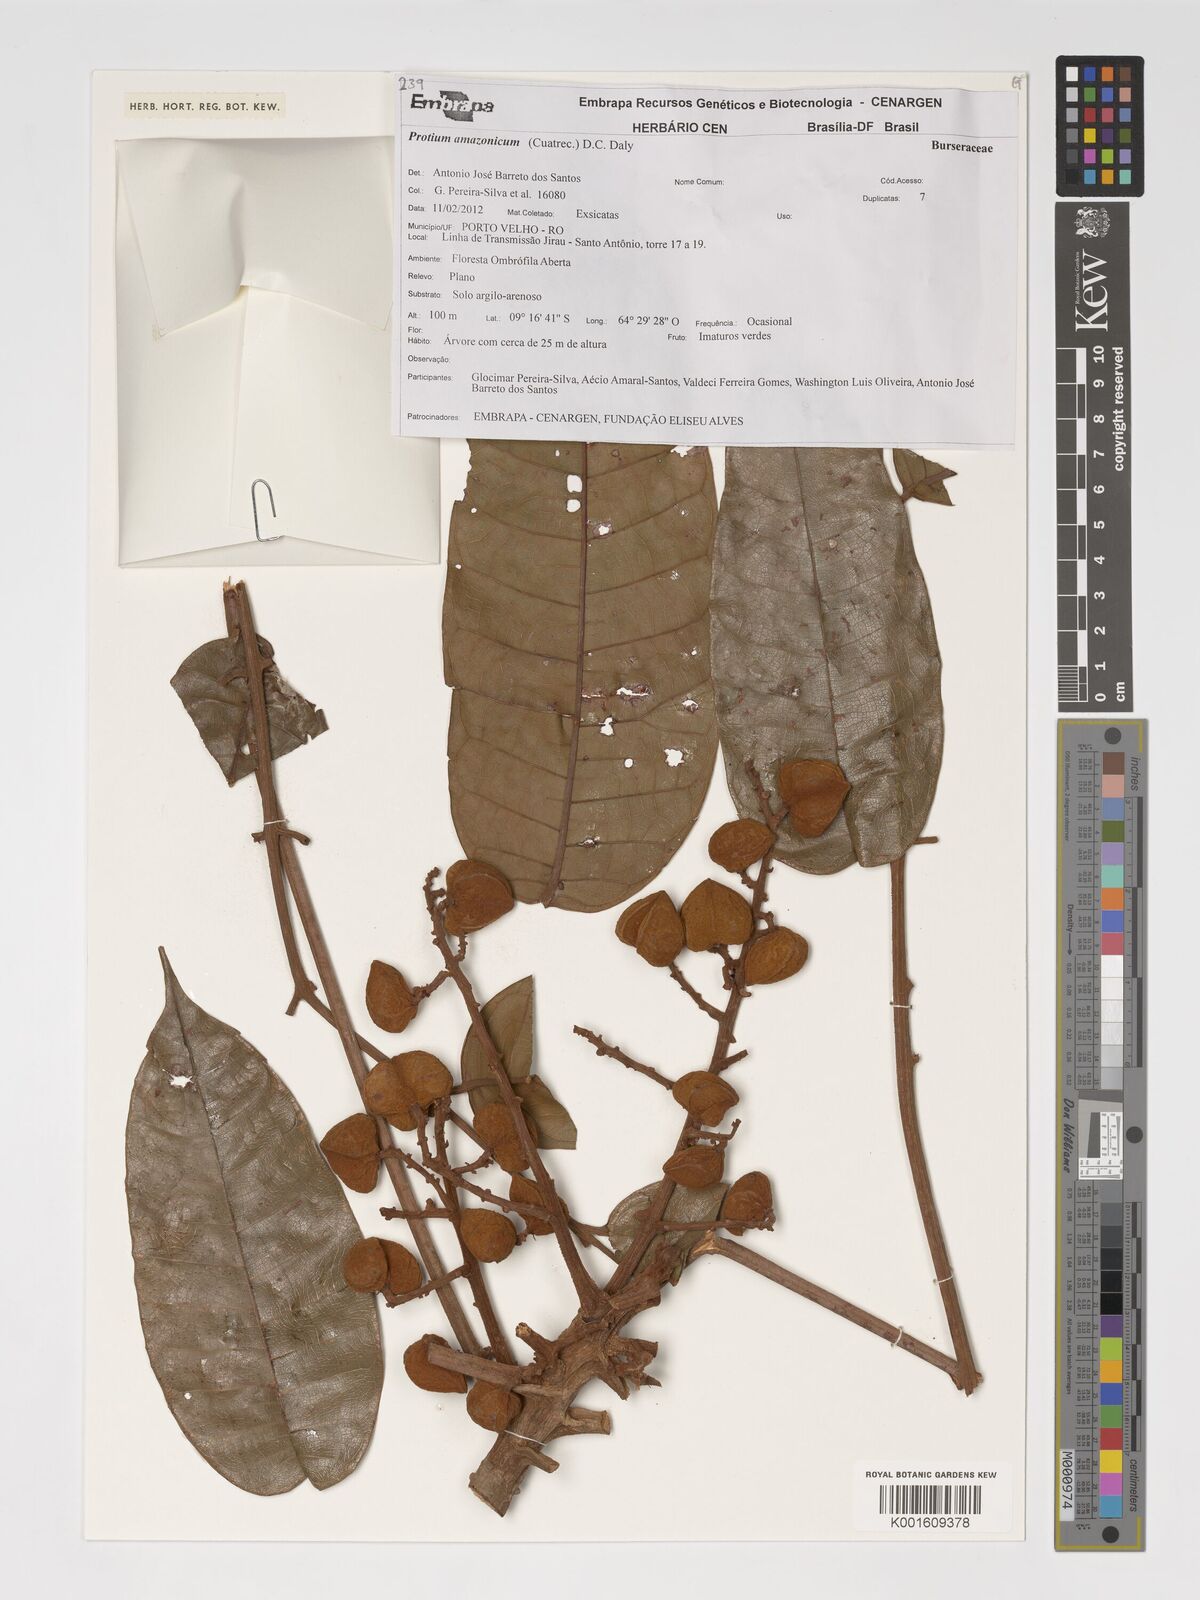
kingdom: Plantae
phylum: Tracheophyta
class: Magnoliopsida
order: Sapindales
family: Burseraceae
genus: Protium
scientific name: Protium amazonicum
